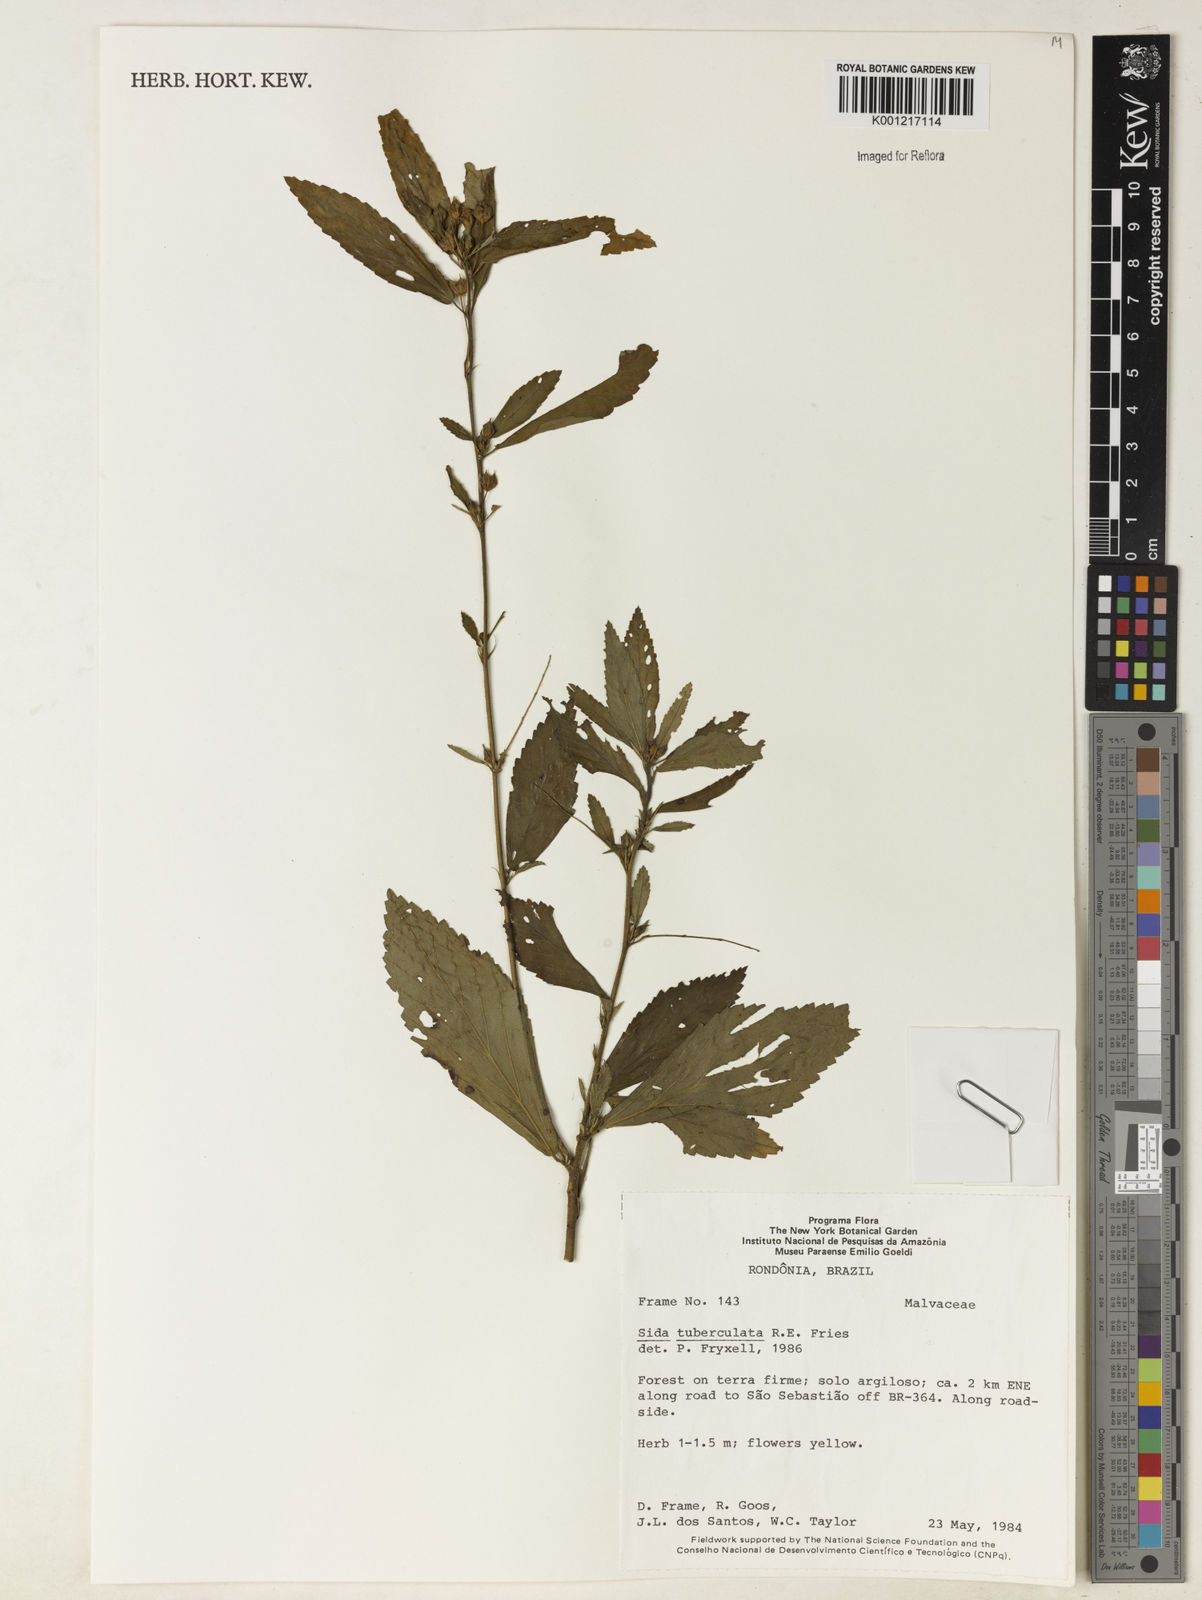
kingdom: Plantae
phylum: Tracheophyta
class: Magnoliopsida
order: Malvales
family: Malvaceae
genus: Sida
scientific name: Sida tuberculata
